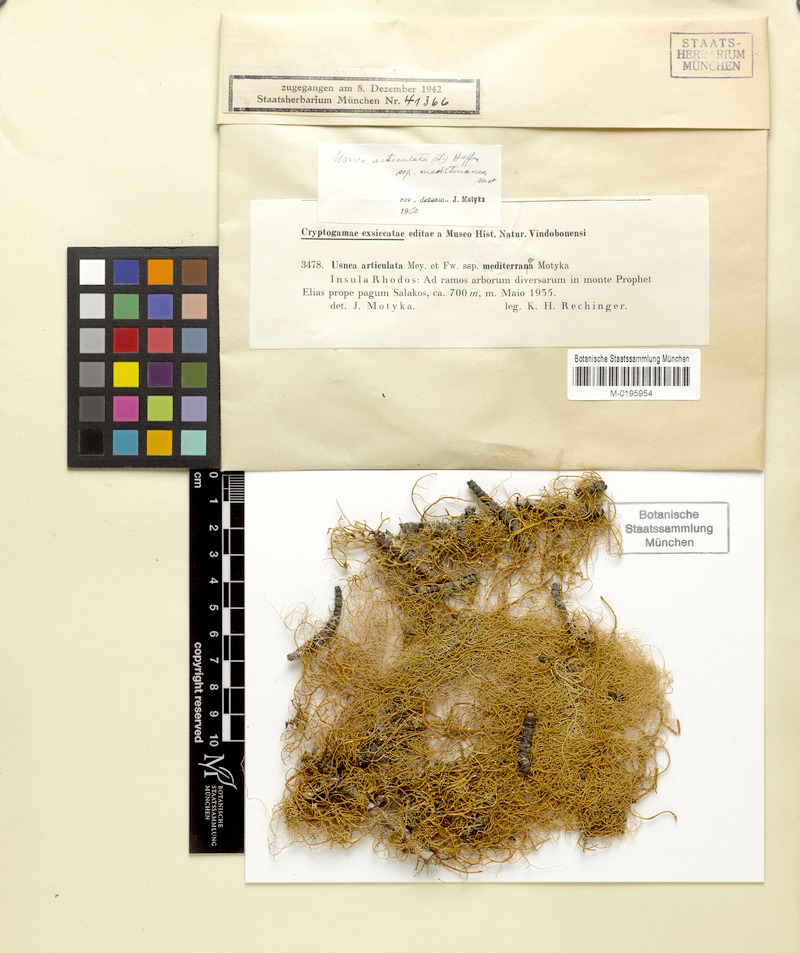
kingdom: Fungi
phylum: Ascomycota
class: Lecanoromycetes
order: Lecanorales
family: Parmeliaceae
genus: Usnea
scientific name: Usnea articulata
